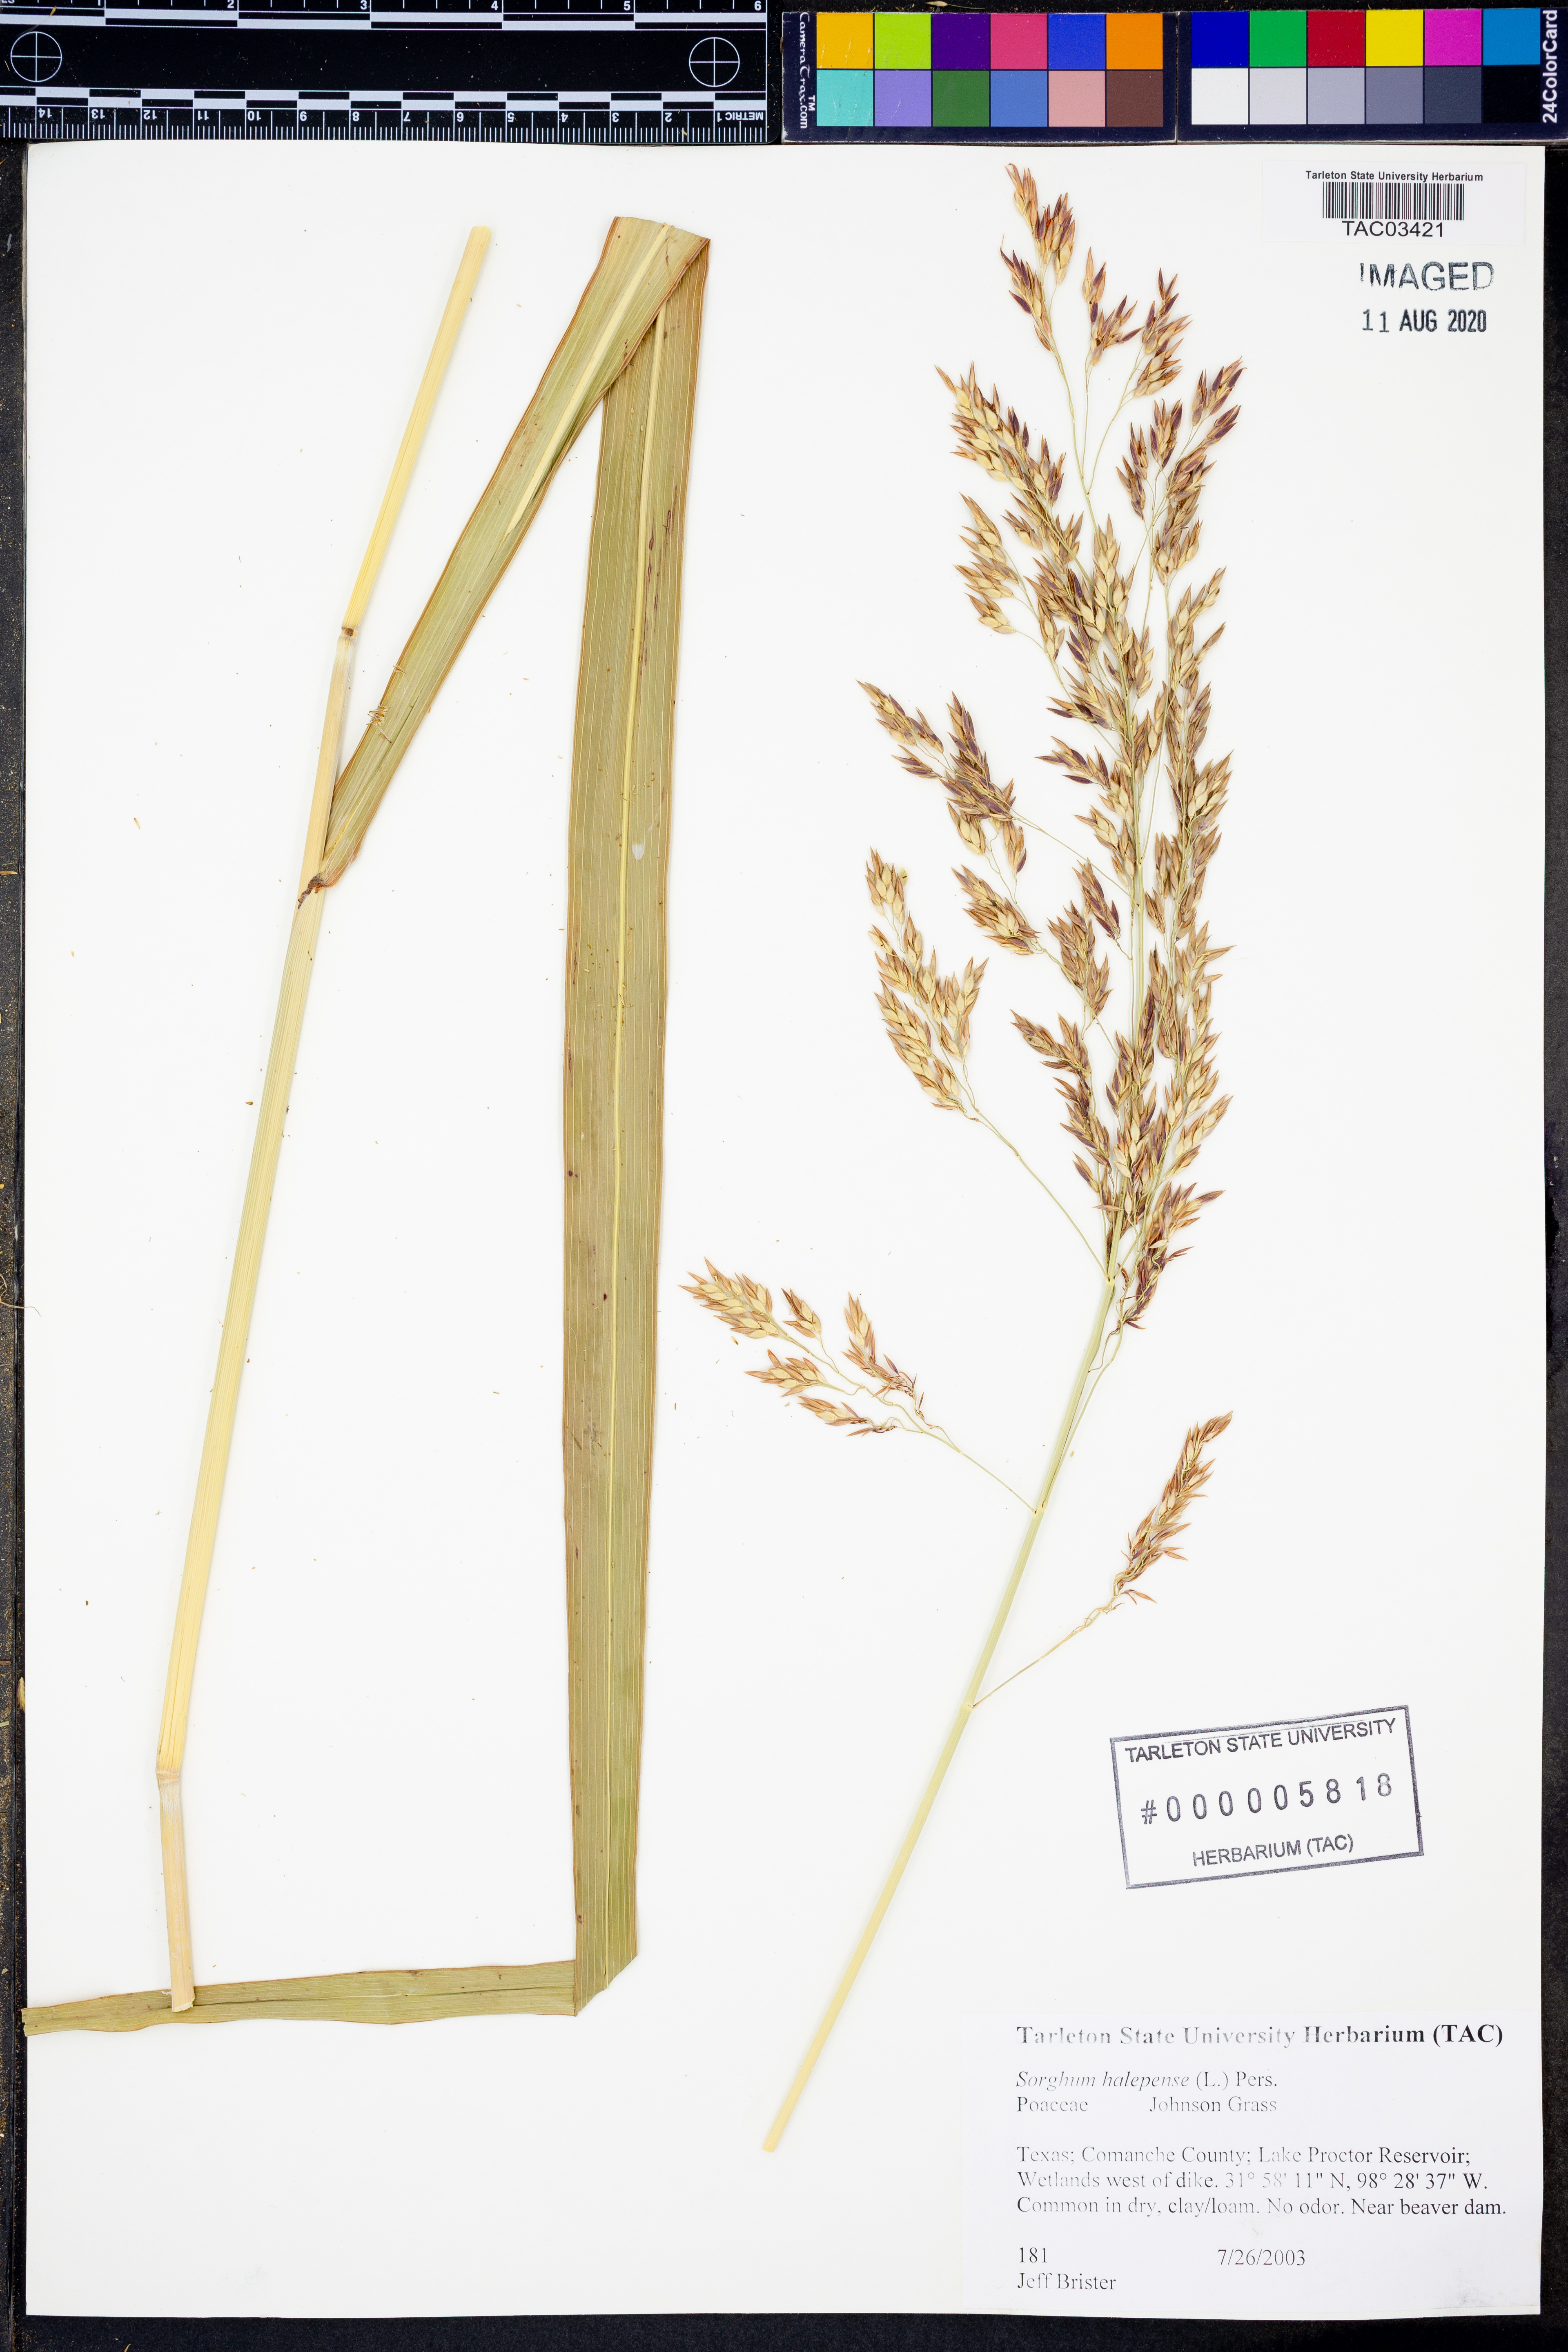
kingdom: Plantae
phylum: Tracheophyta
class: Liliopsida
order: Poales
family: Poaceae
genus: Sorghum
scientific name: Sorghum halepense
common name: Johnson-grass
